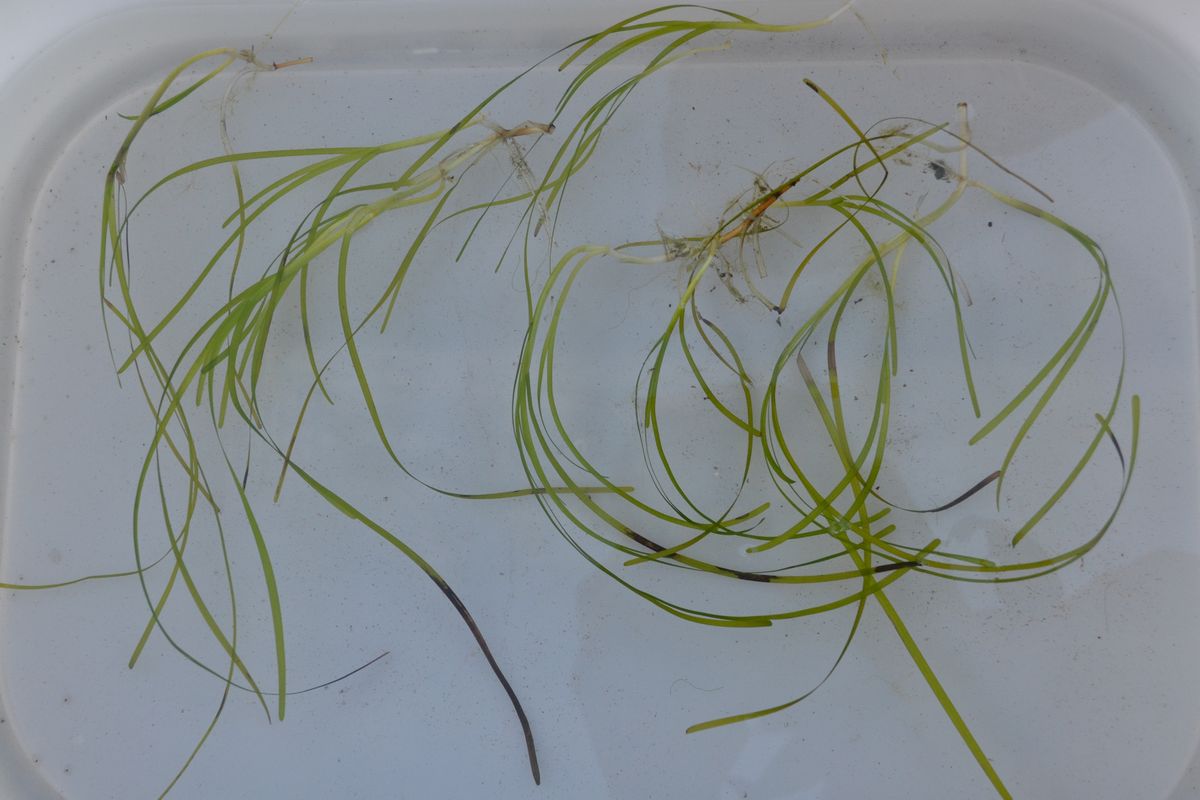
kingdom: Plantae
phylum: Tracheophyta
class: Liliopsida
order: Alismatales
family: Zosteraceae
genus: Zostera
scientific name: Zostera marina
